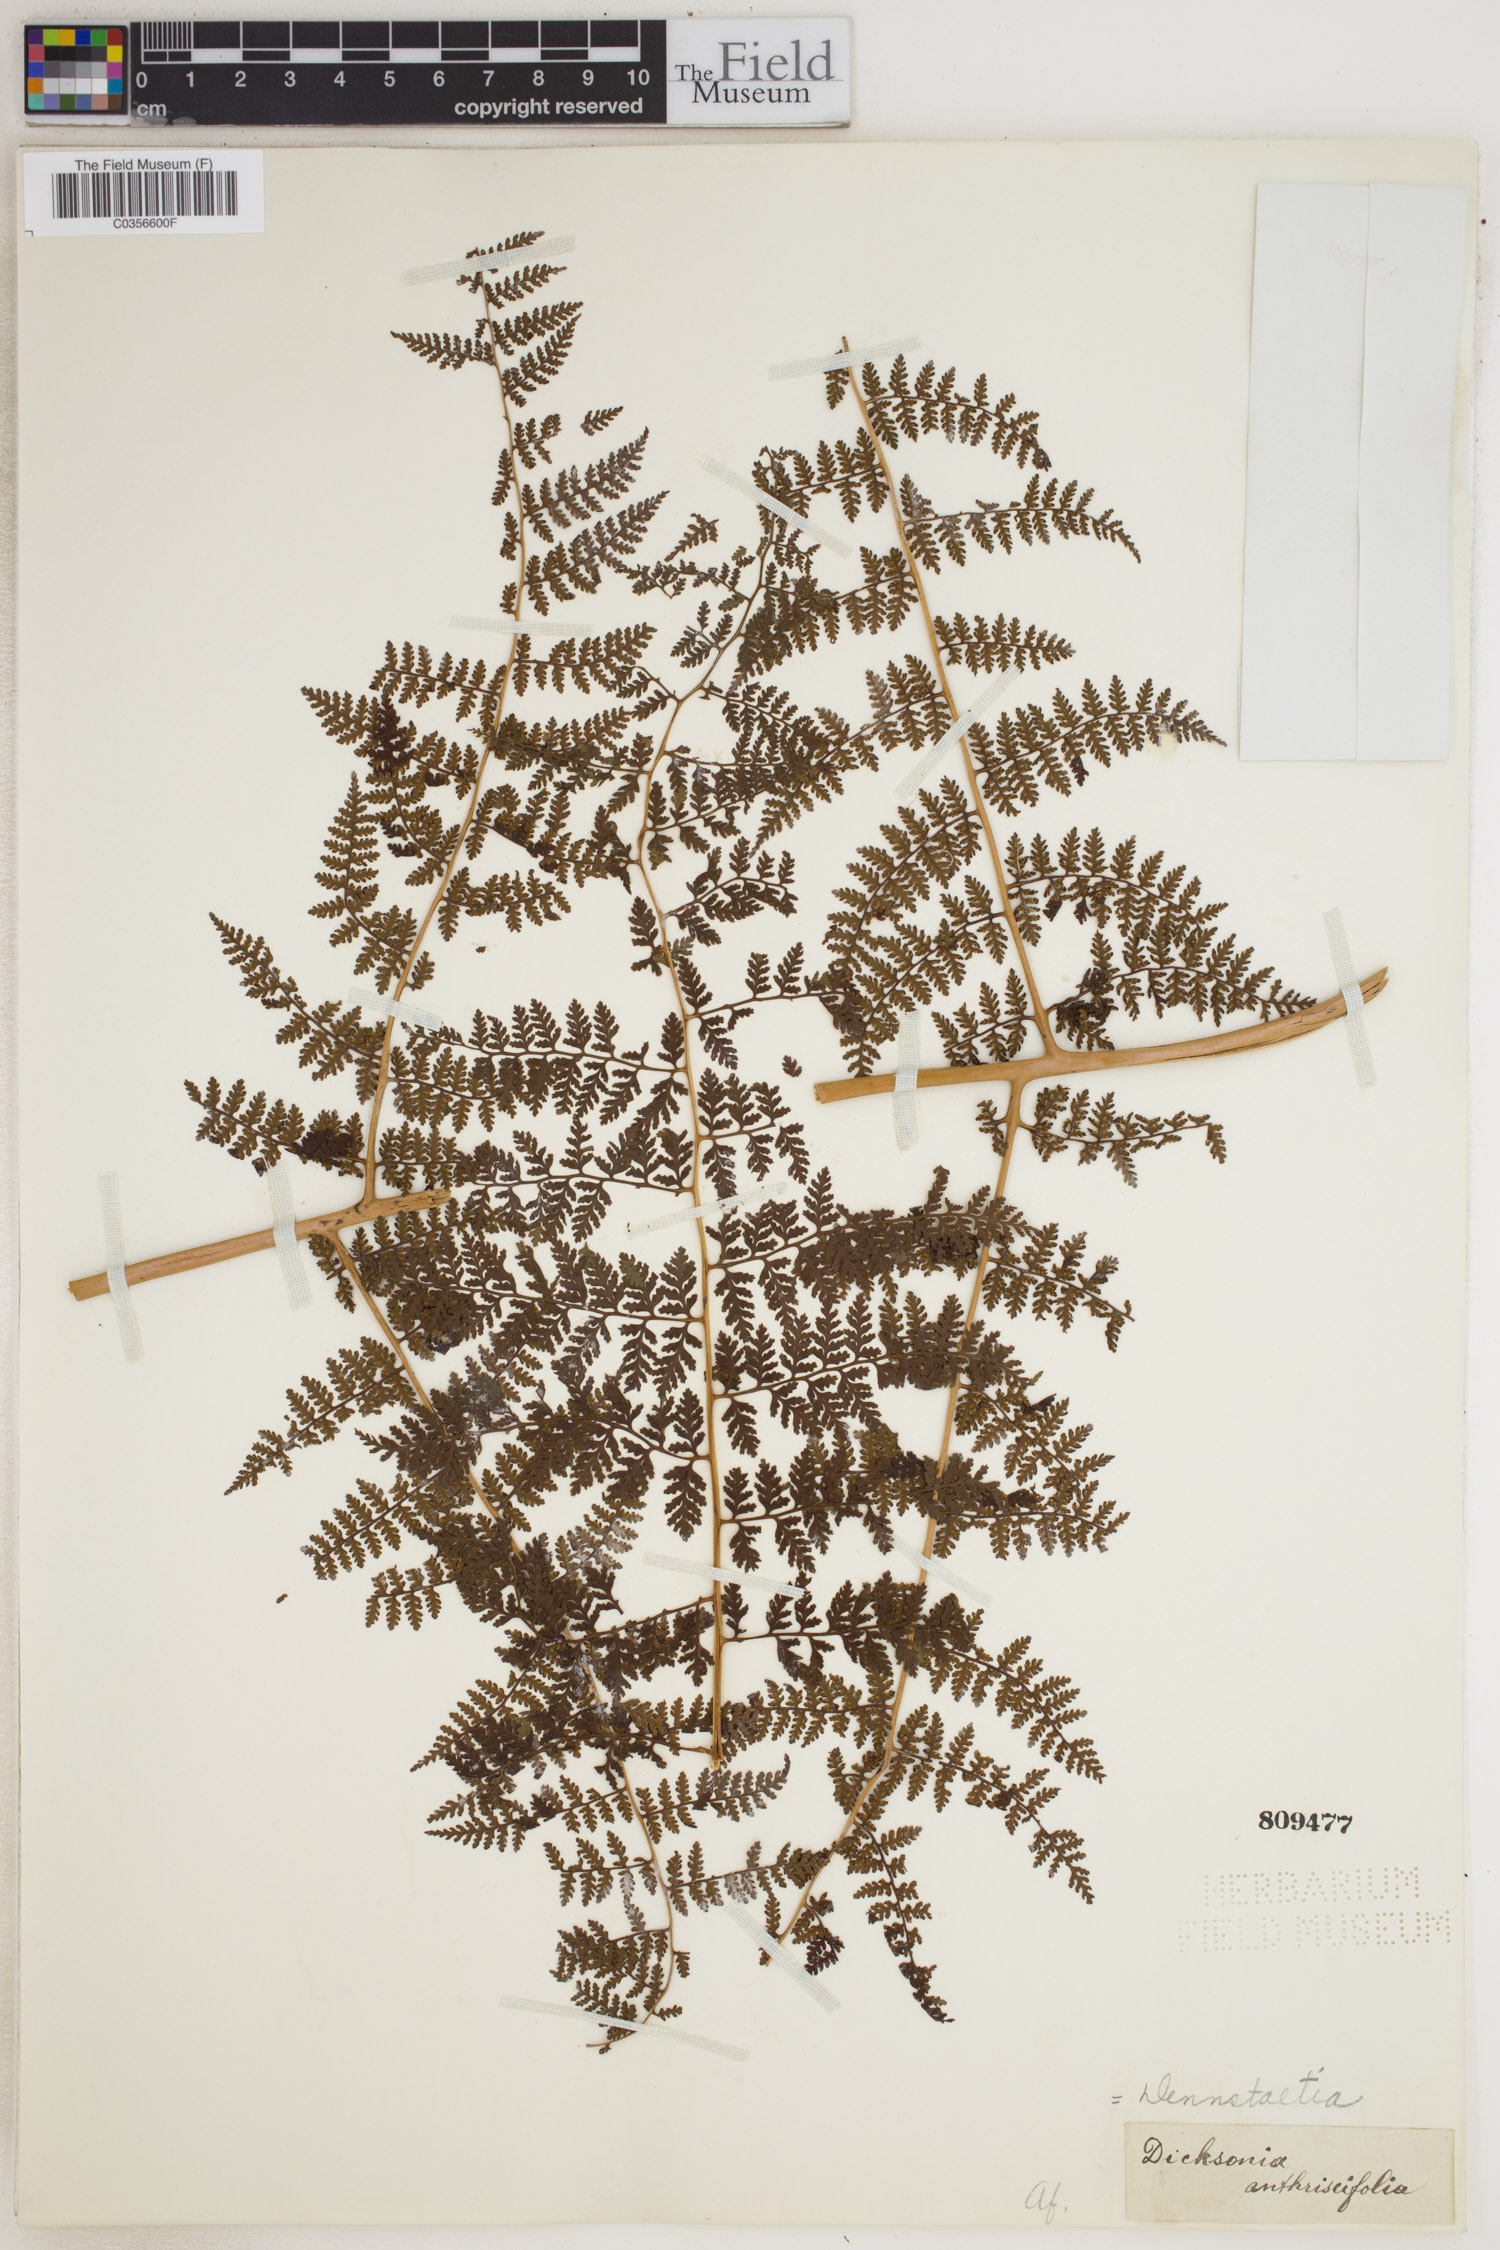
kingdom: Plantae
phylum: Tracheophyta
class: Polypodiopsida
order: Polypodiales
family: Dennstaedtiaceae
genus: Dennstaedtia
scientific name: Dennstaedtia anthriscifolia
